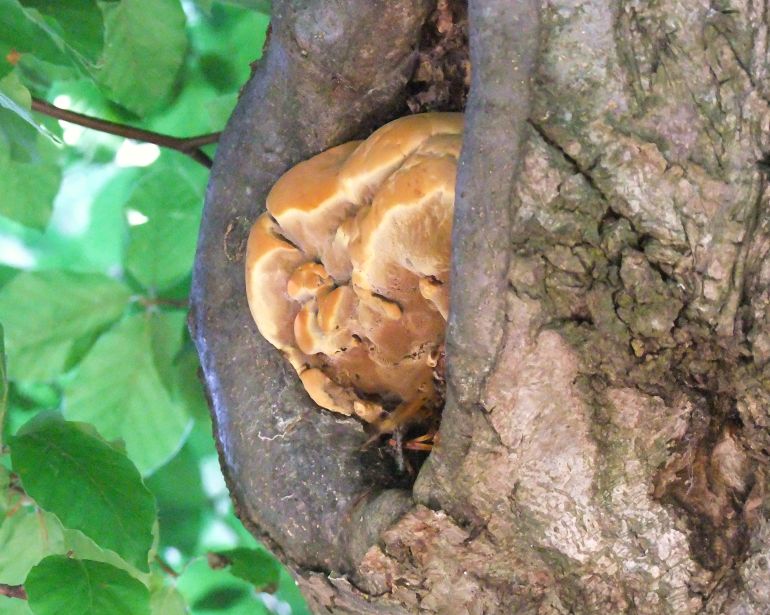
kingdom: Fungi
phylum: Basidiomycota
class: Agaricomycetes
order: Hymenochaetales
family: Hymenochaetaceae
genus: Inonotus
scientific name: Inonotus cuticularis
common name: kroghåret spejlporesvamp
